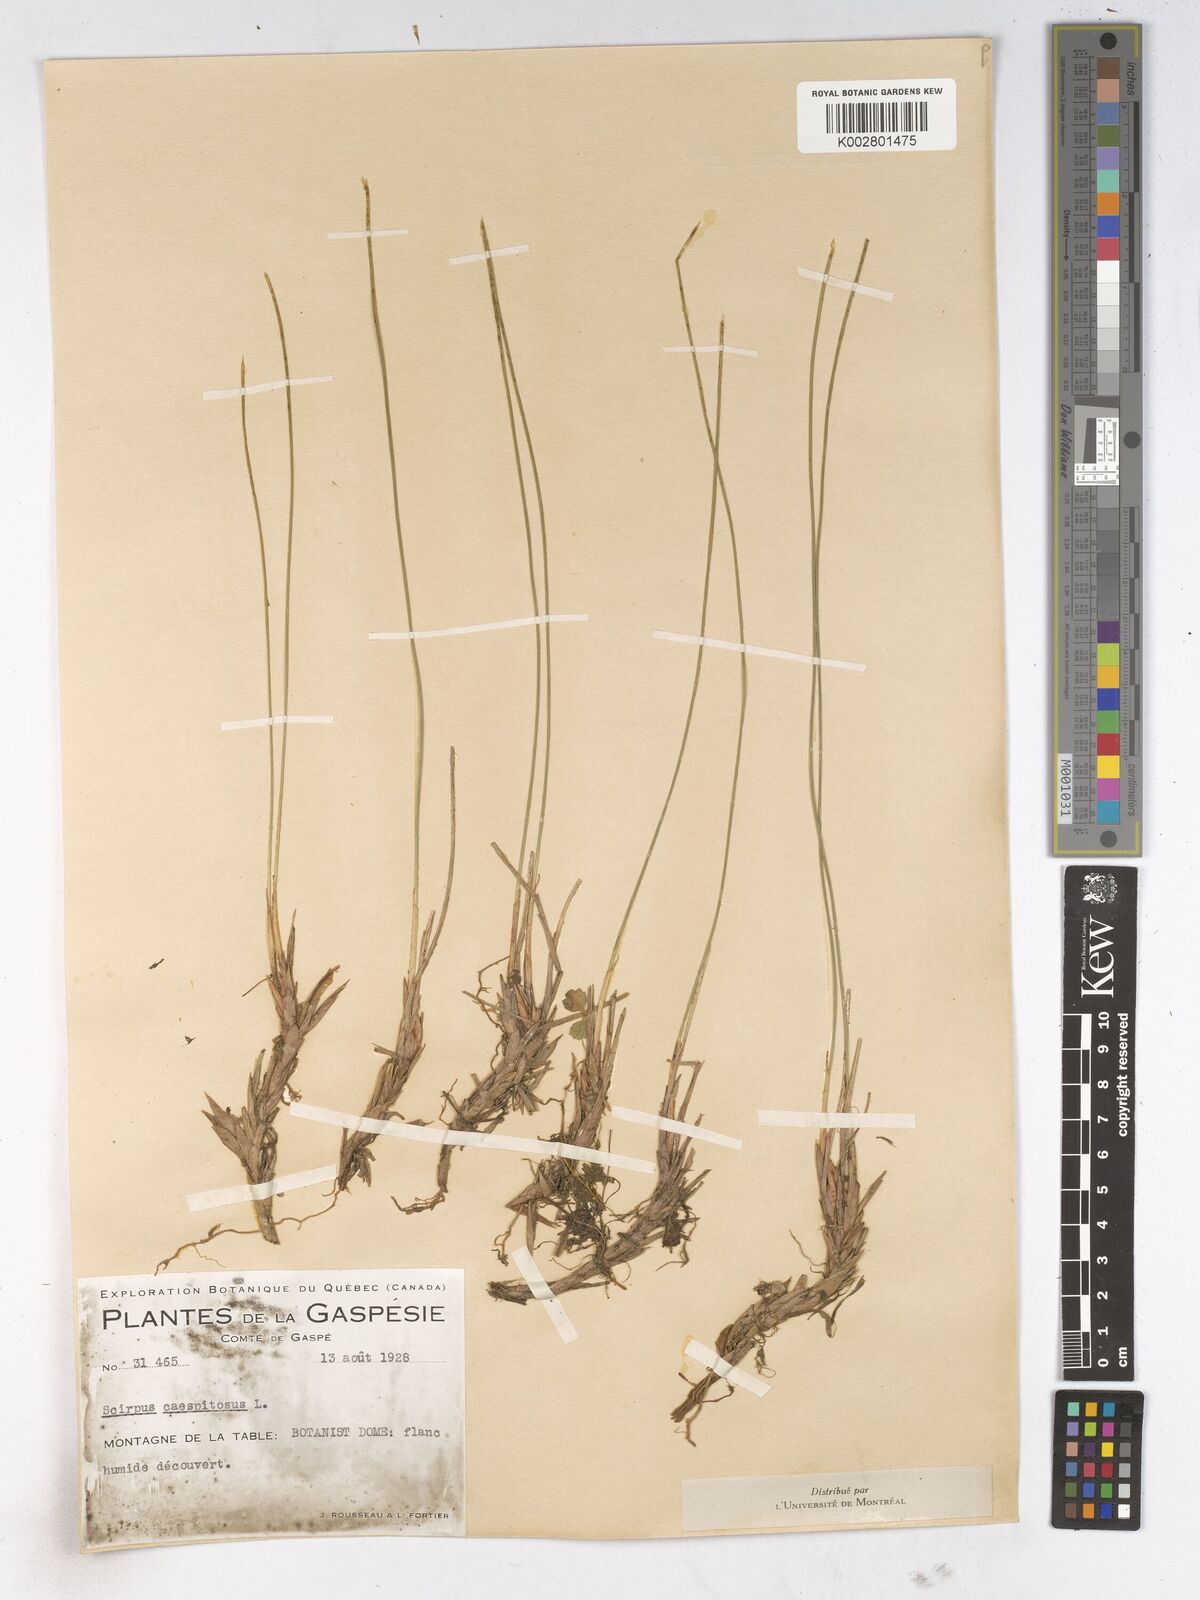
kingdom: Plantae
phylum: Tracheophyta
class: Liliopsida
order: Poales
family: Cyperaceae
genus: Trichophorum
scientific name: Trichophorum cespitosum
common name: Cespitose bulrush
